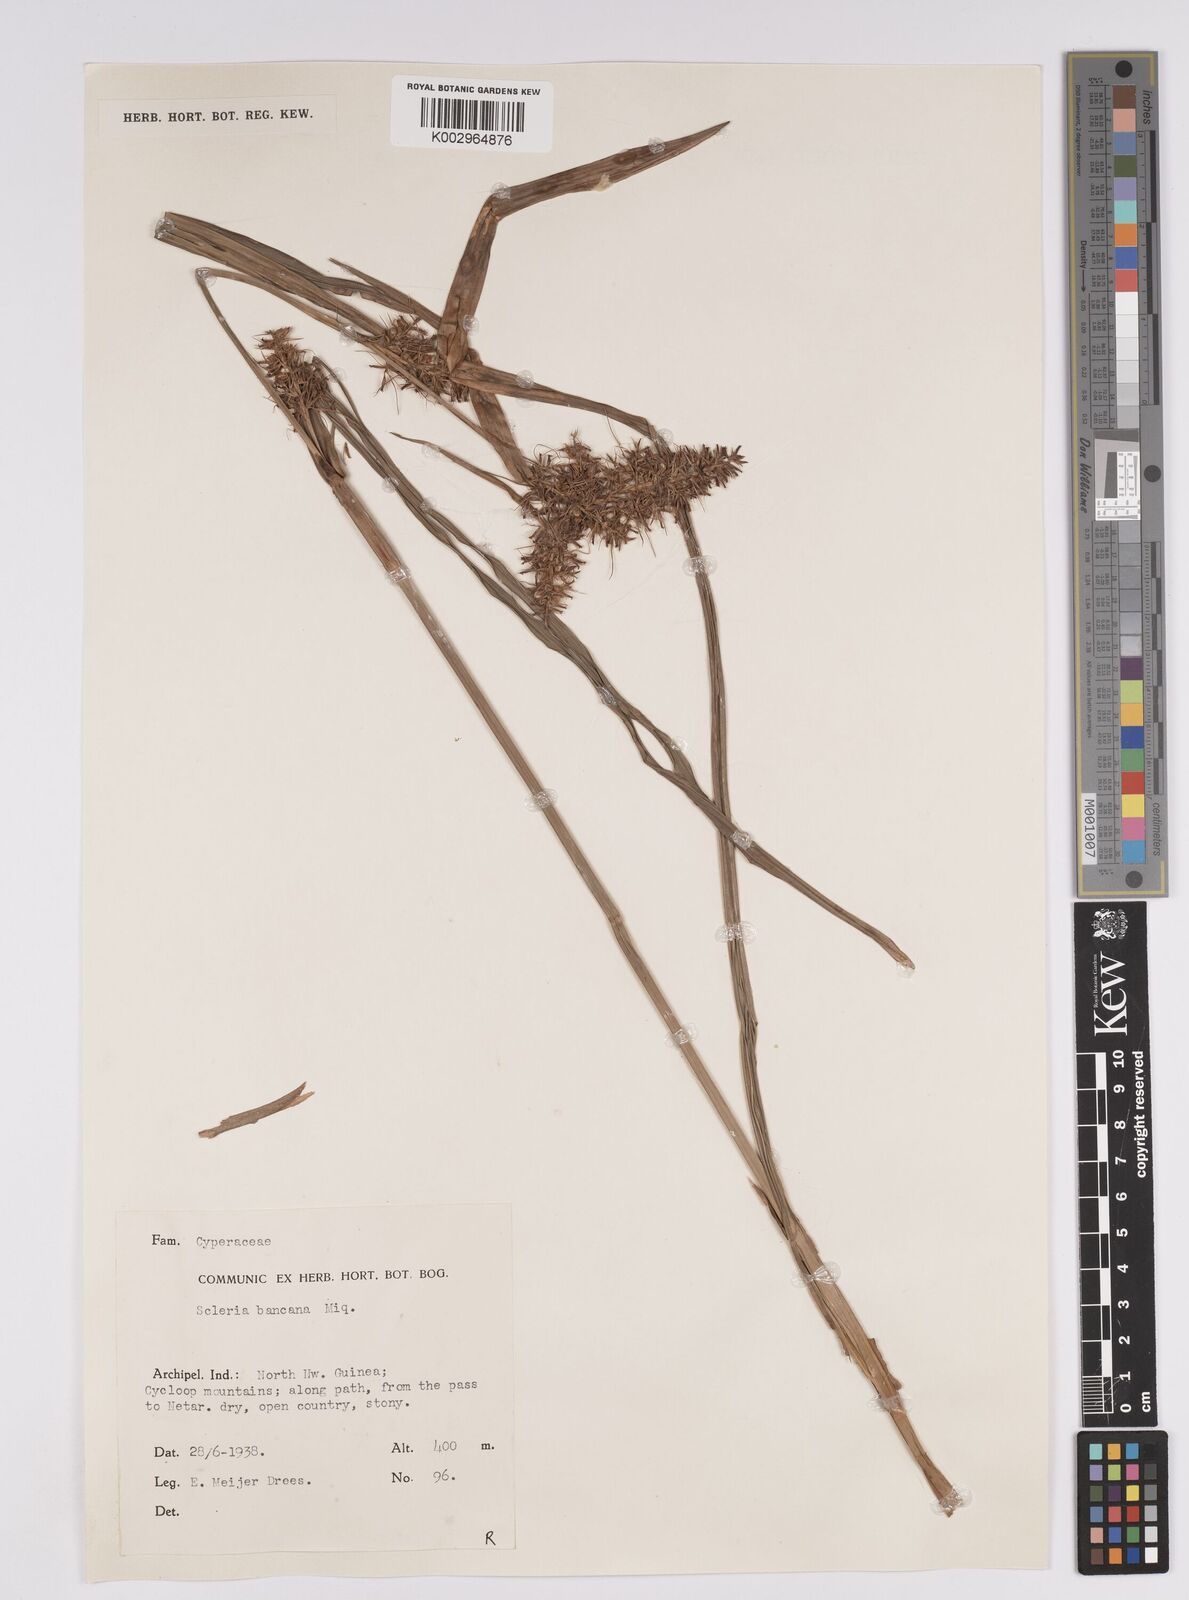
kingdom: Plantae
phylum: Tracheophyta
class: Liliopsida
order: Poales
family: Cyperaceae
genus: Scleria
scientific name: Scleria ciliaris
